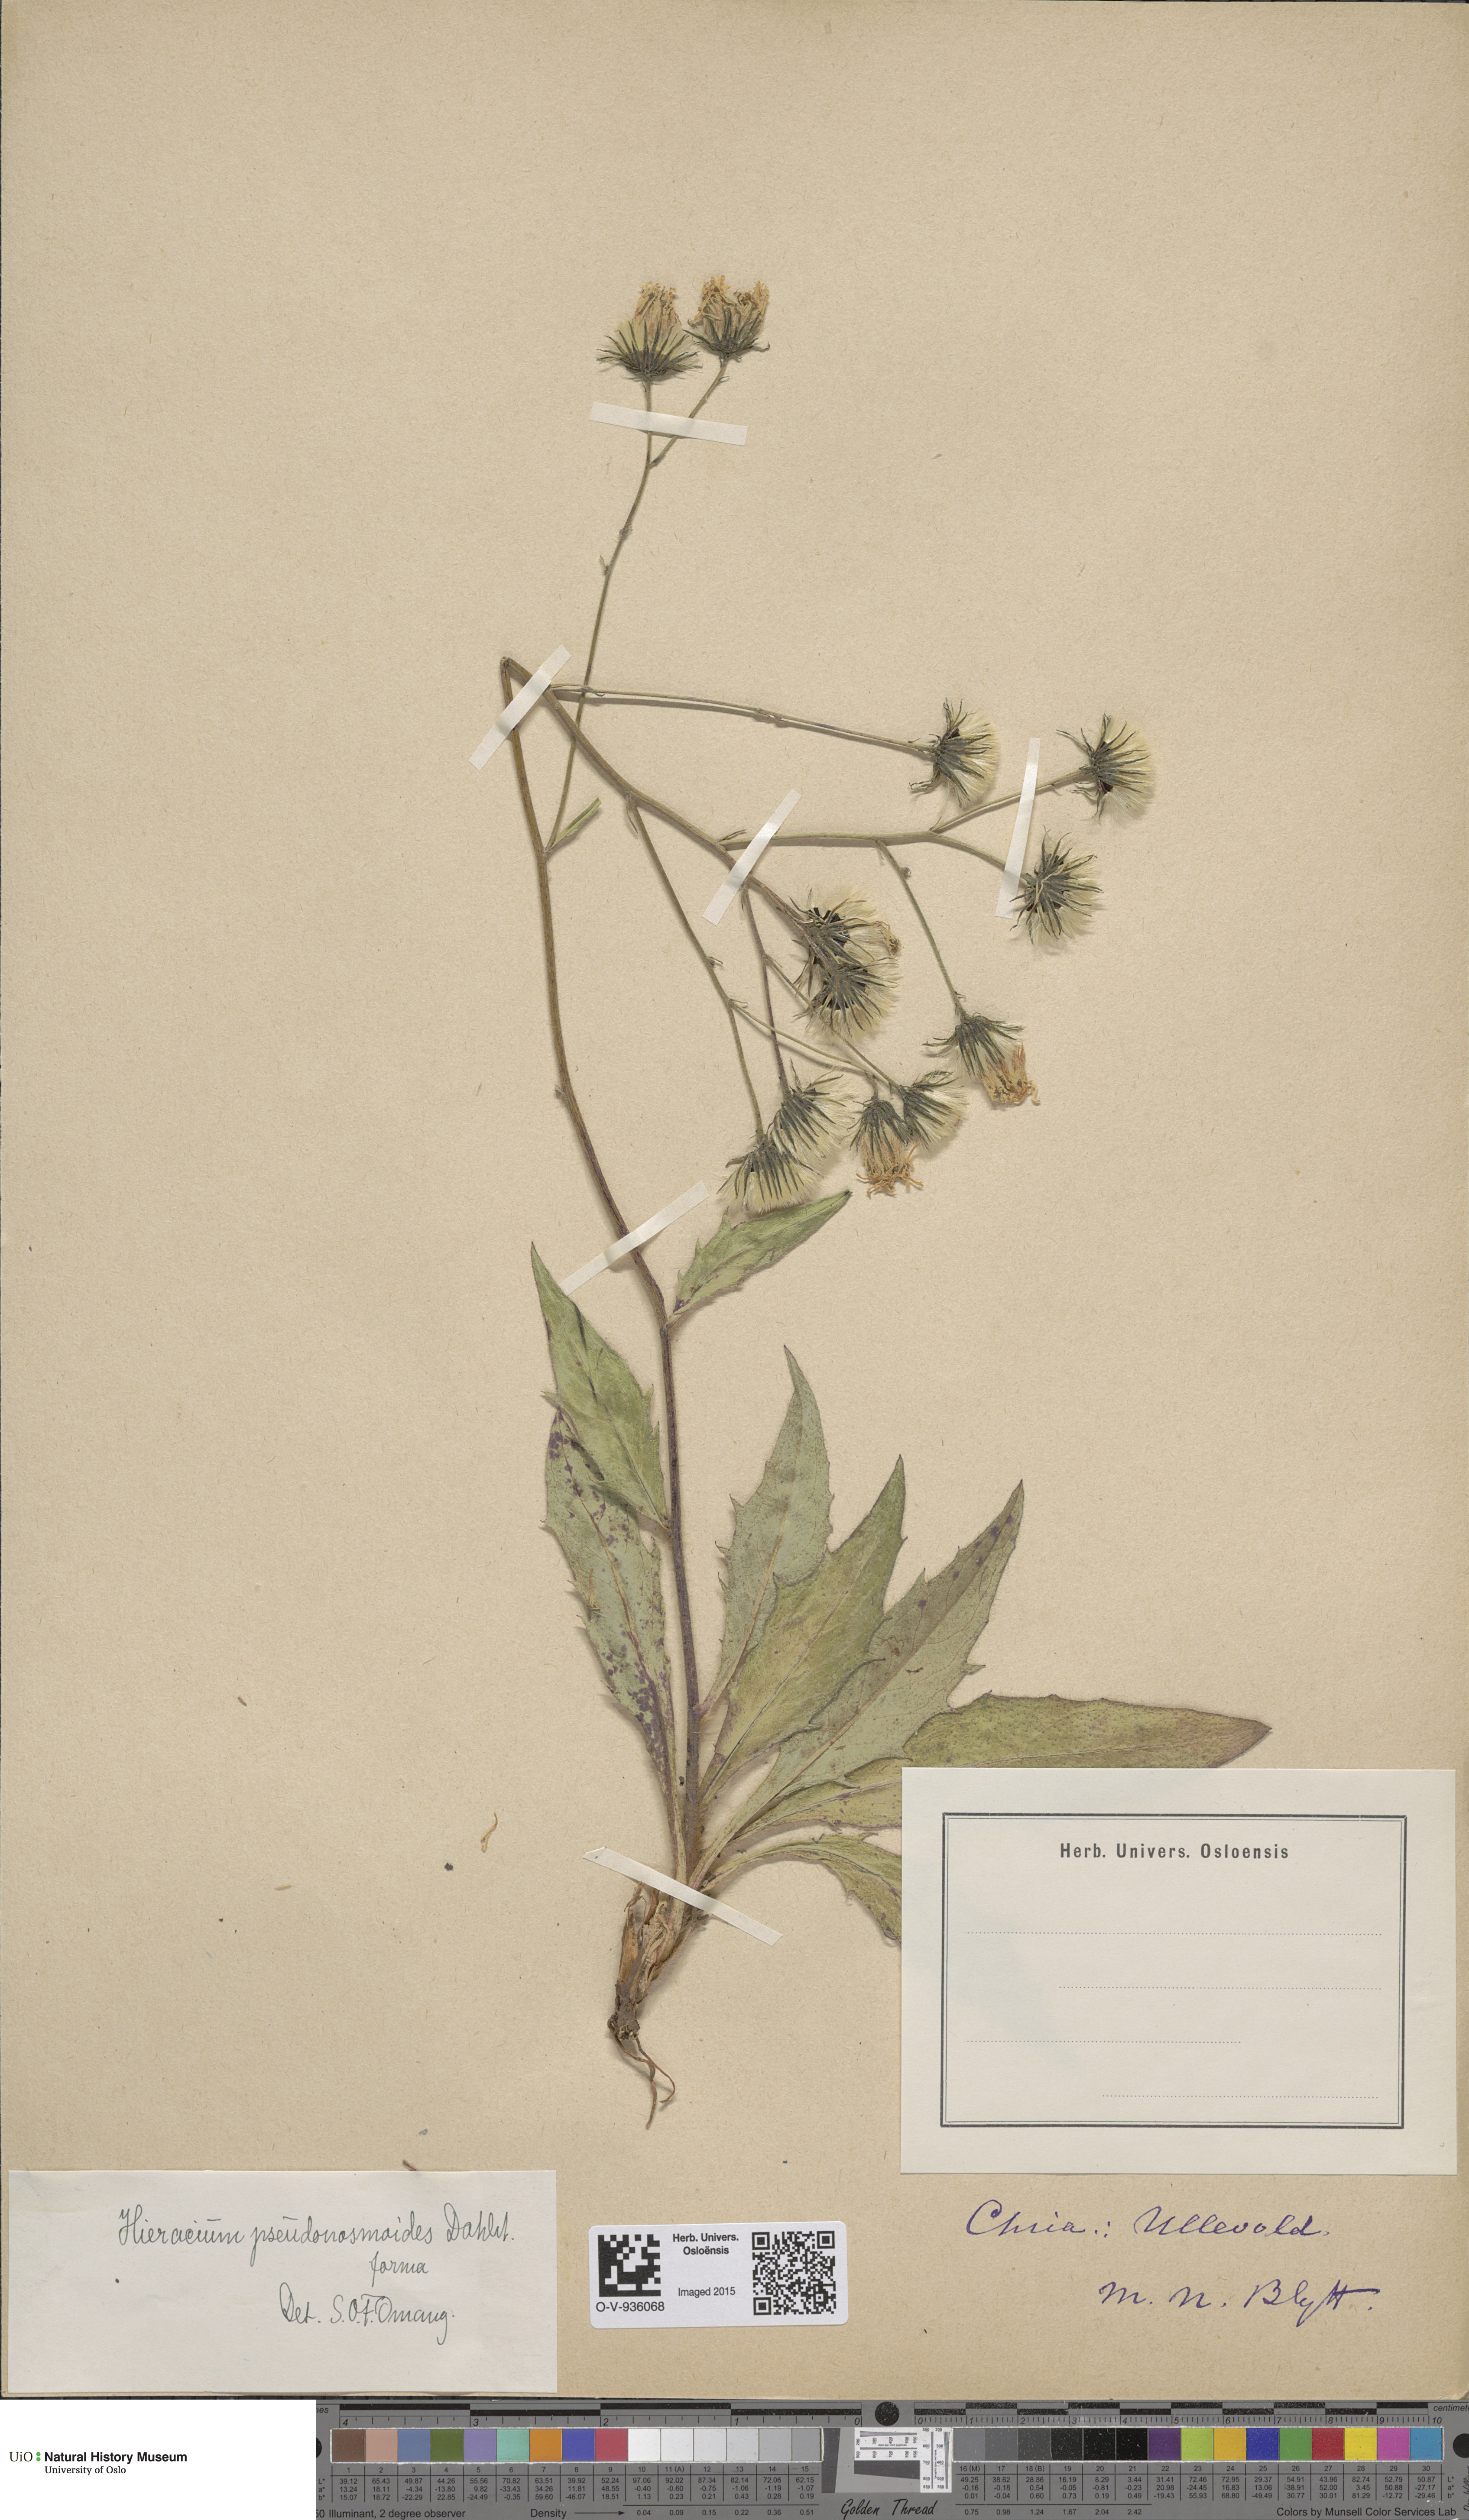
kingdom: Plantae
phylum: Tracheophyta
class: Magnoliopsida
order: Asterales
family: Asteraceae
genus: Hieracium
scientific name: Hieracium saxifragum
